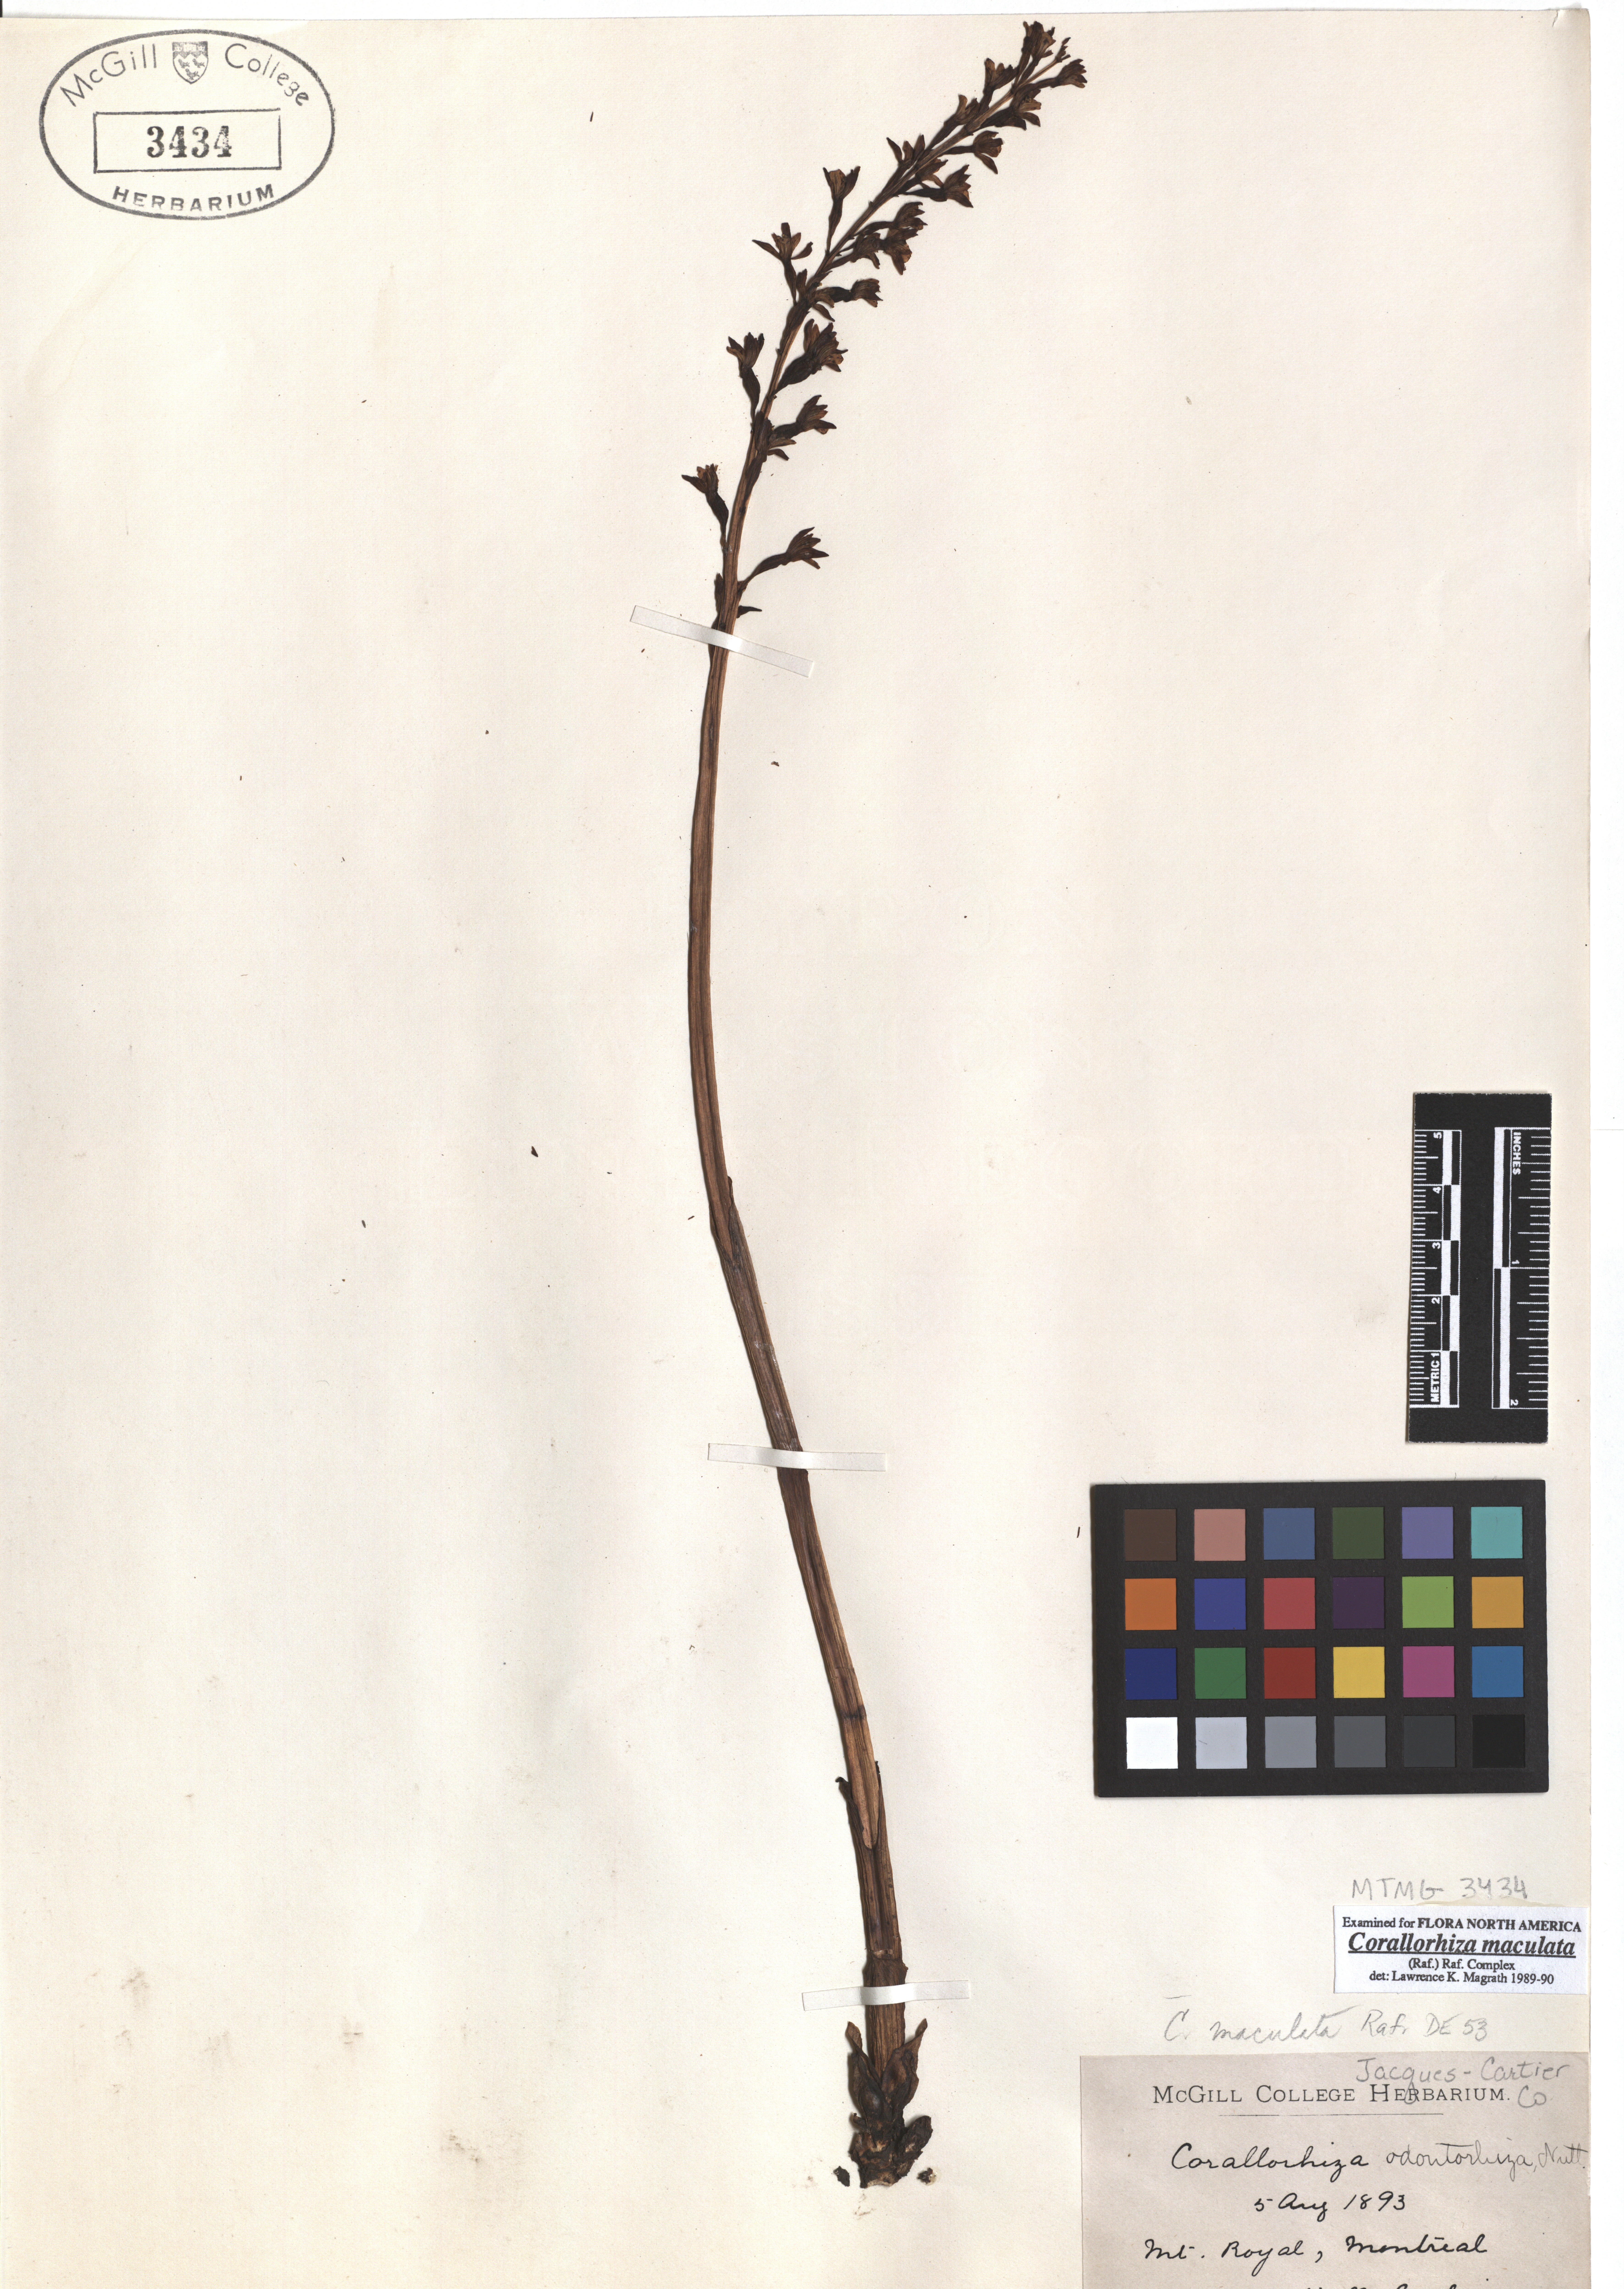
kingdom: Plantae
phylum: Tracheophyta
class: Liliopsida
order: Asparagales
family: Orchidaceae
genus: Corallorhiza
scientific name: Corallorhiza maculata
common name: Spotted coralroot
